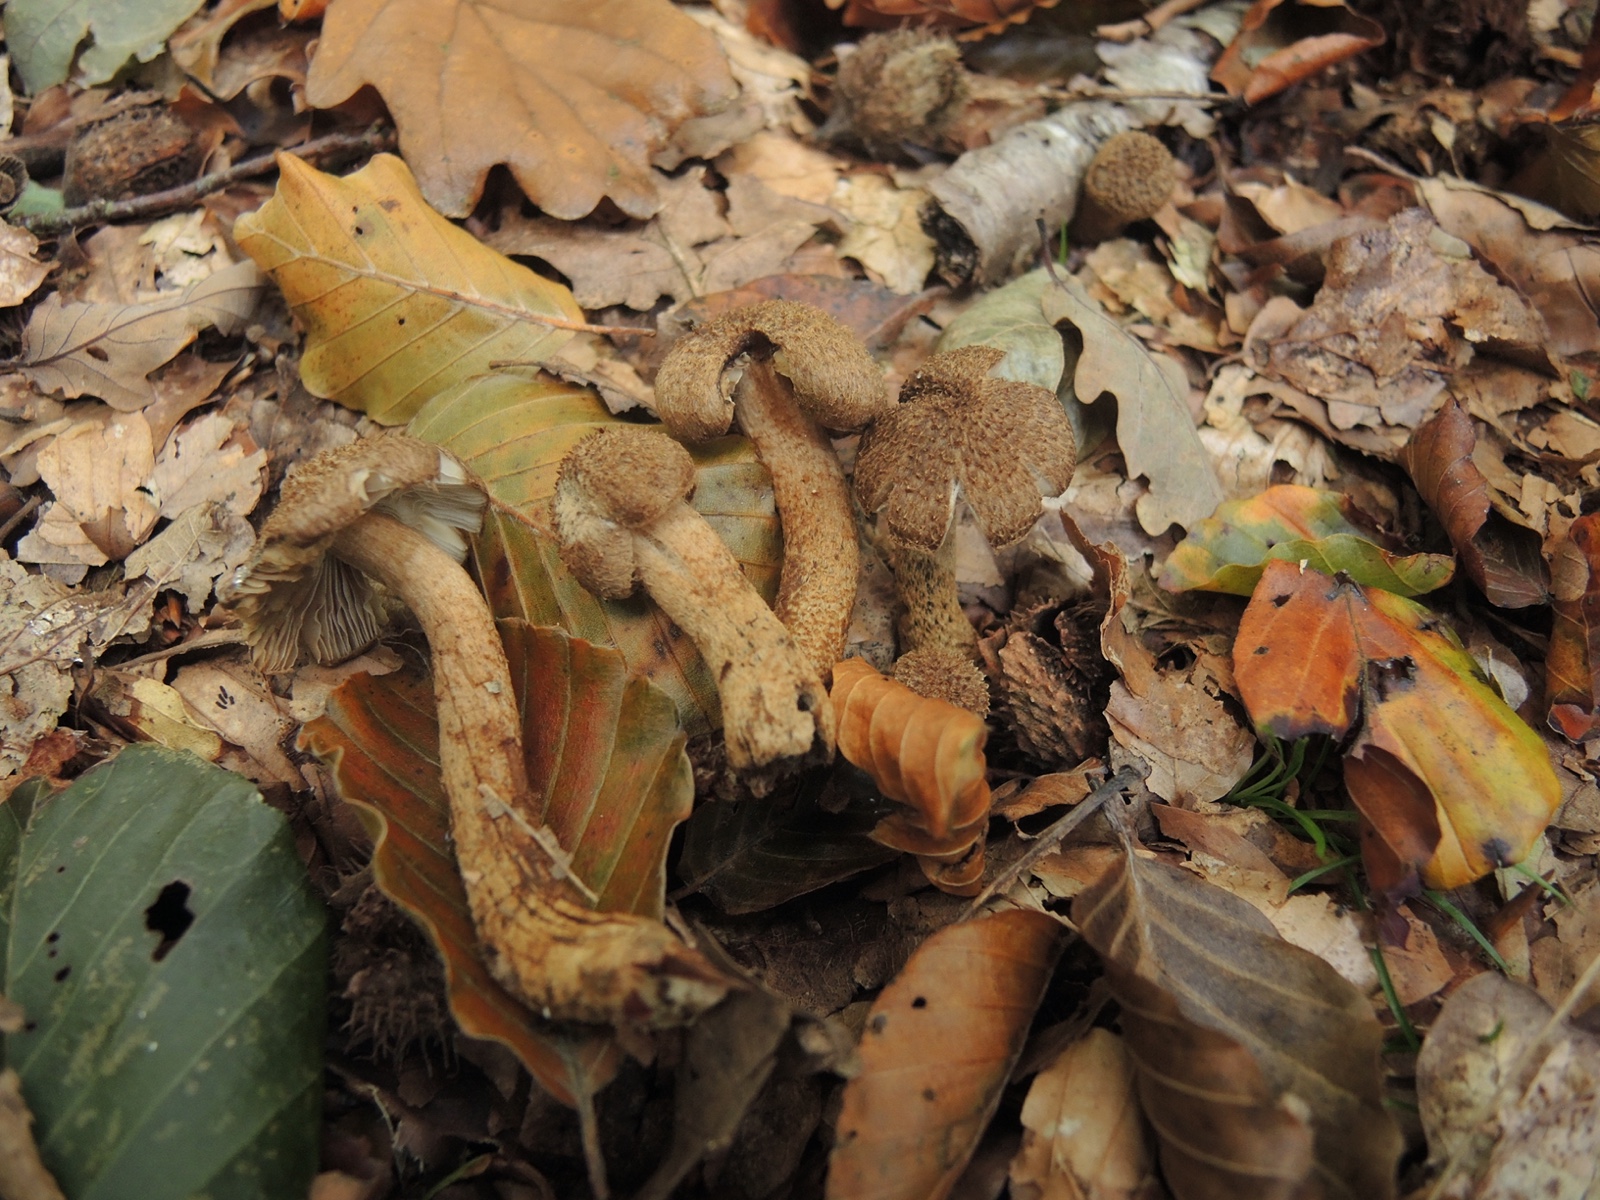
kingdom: Fungi
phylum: Basidiomycota
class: Agaricomycetes
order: Agaricales
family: Inocybaceae
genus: Inocybe
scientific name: Inocybe lanuginosa
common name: uldskællet trævlhat
